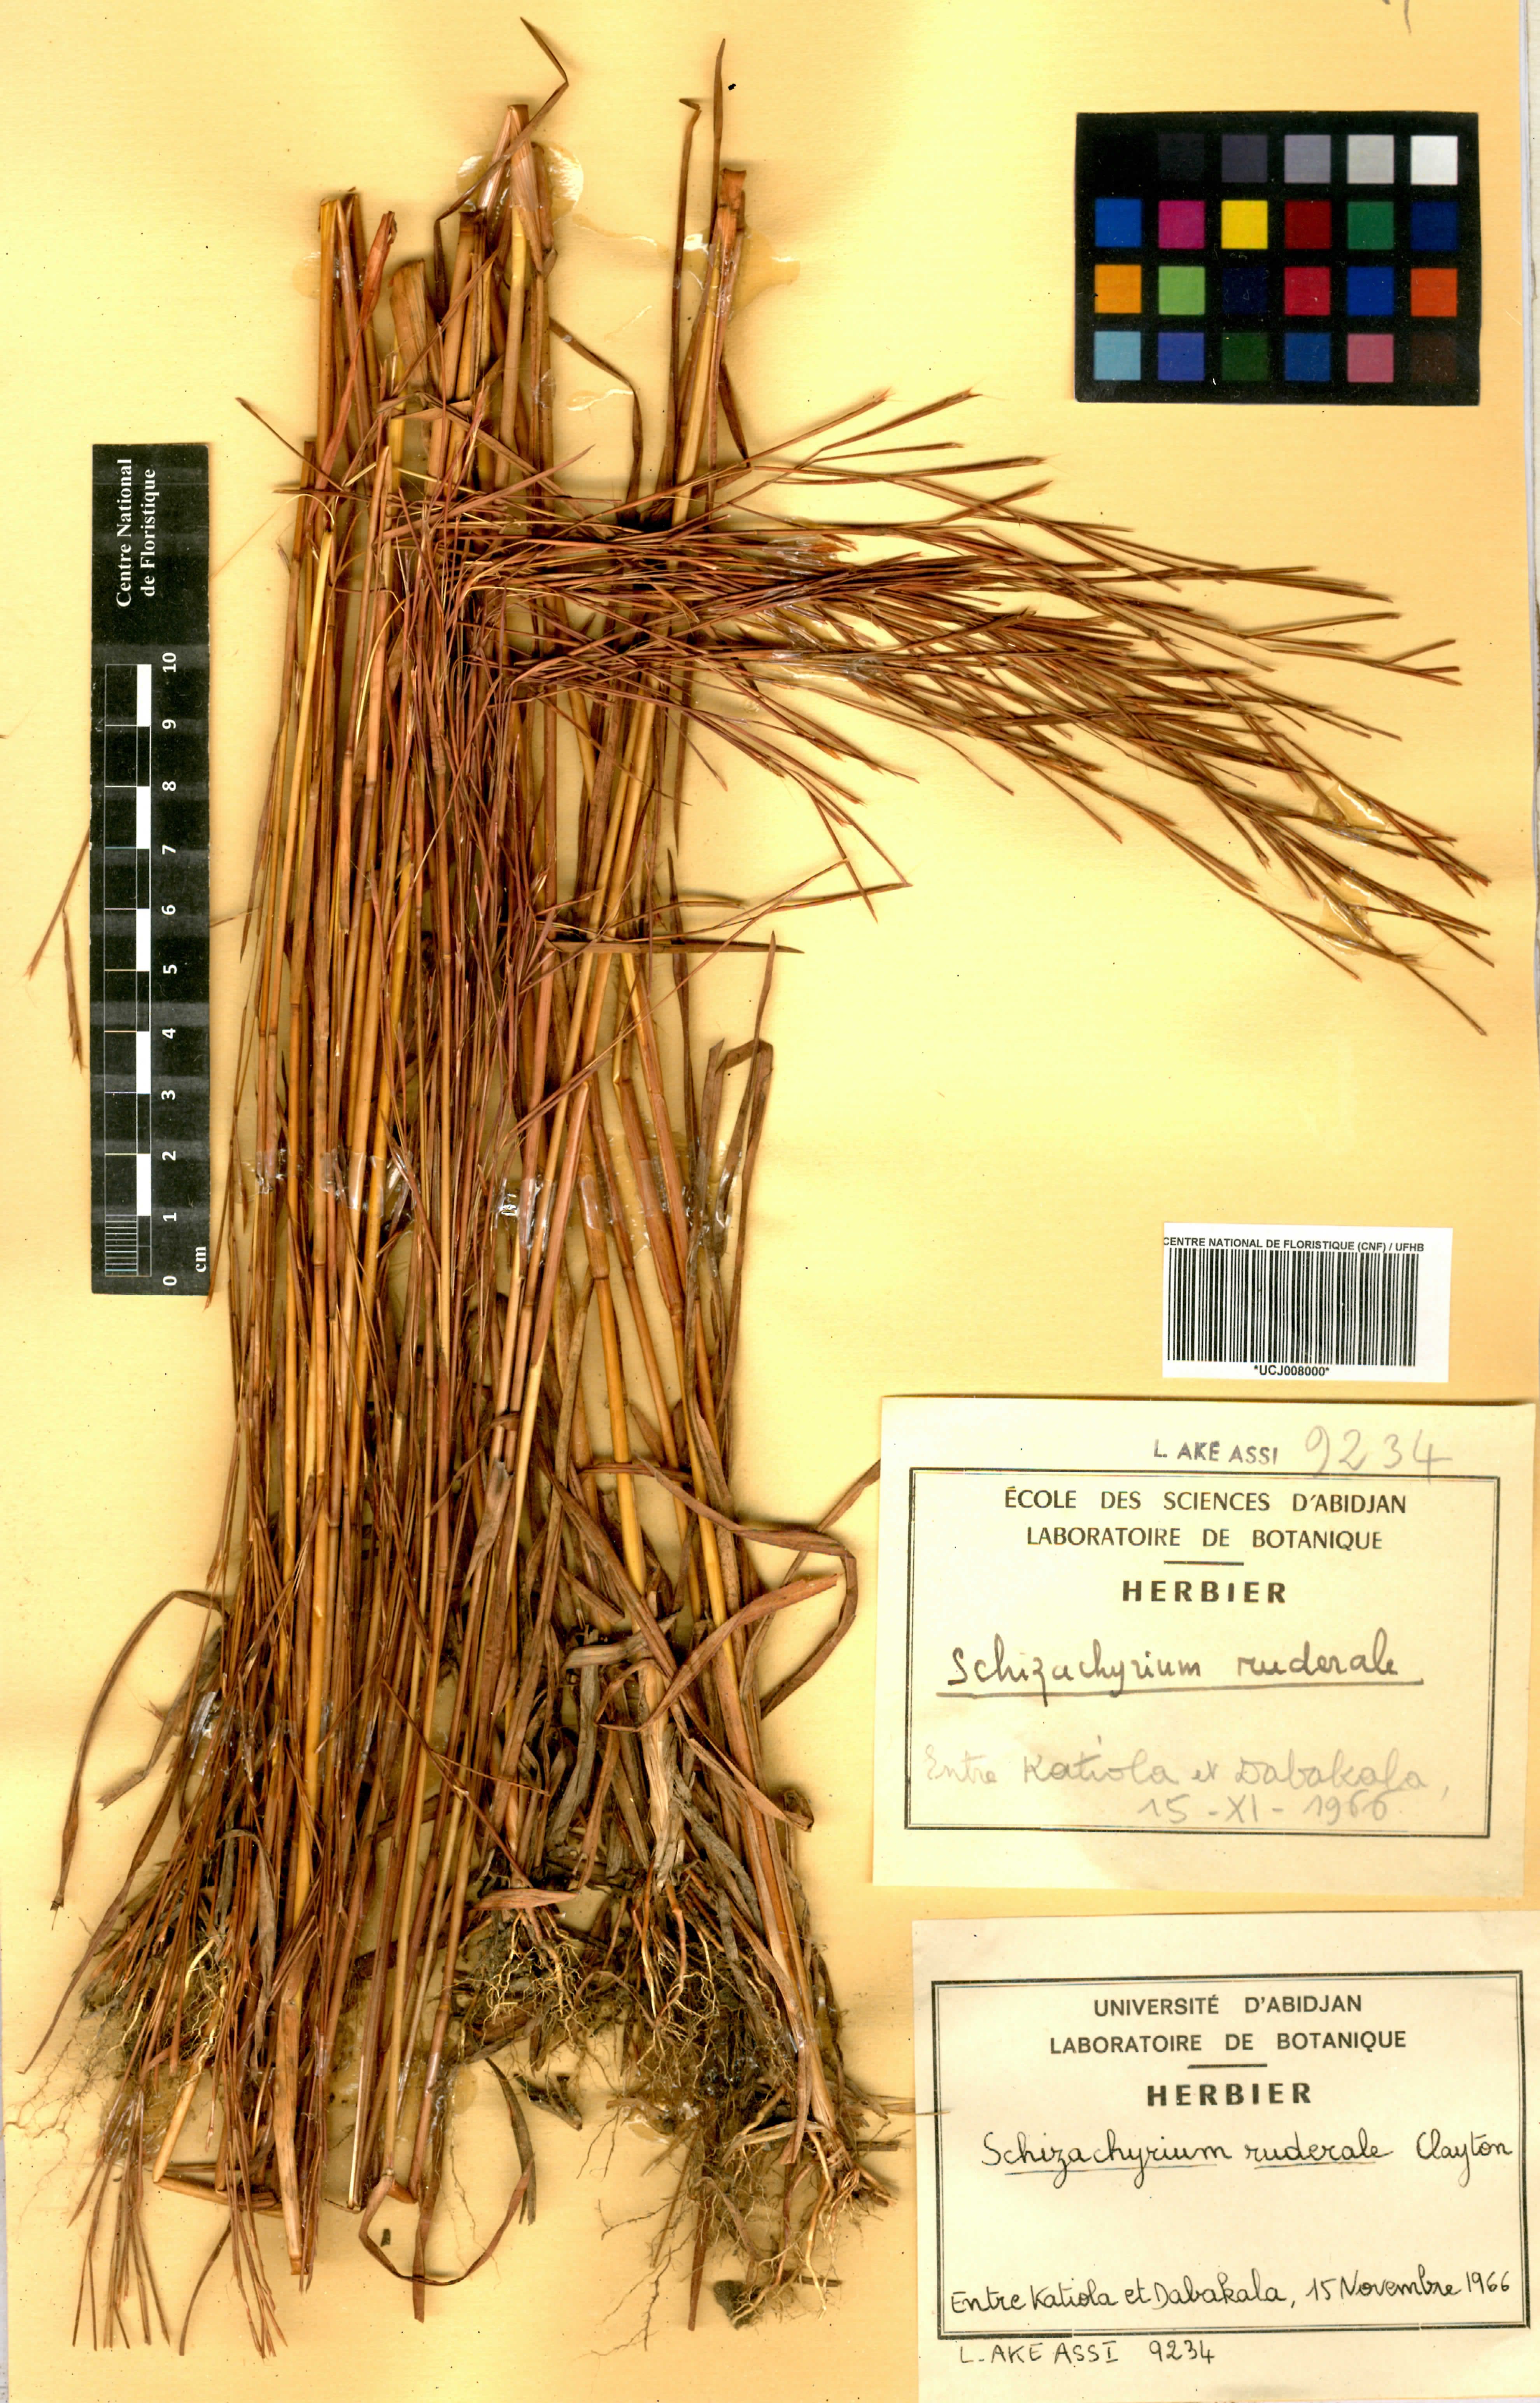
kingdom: Plantae
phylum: Tracheophyta
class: Liliopsida
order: Poales
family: Poaceae
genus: Schizachyrium
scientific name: Schizachyrium ruderale
